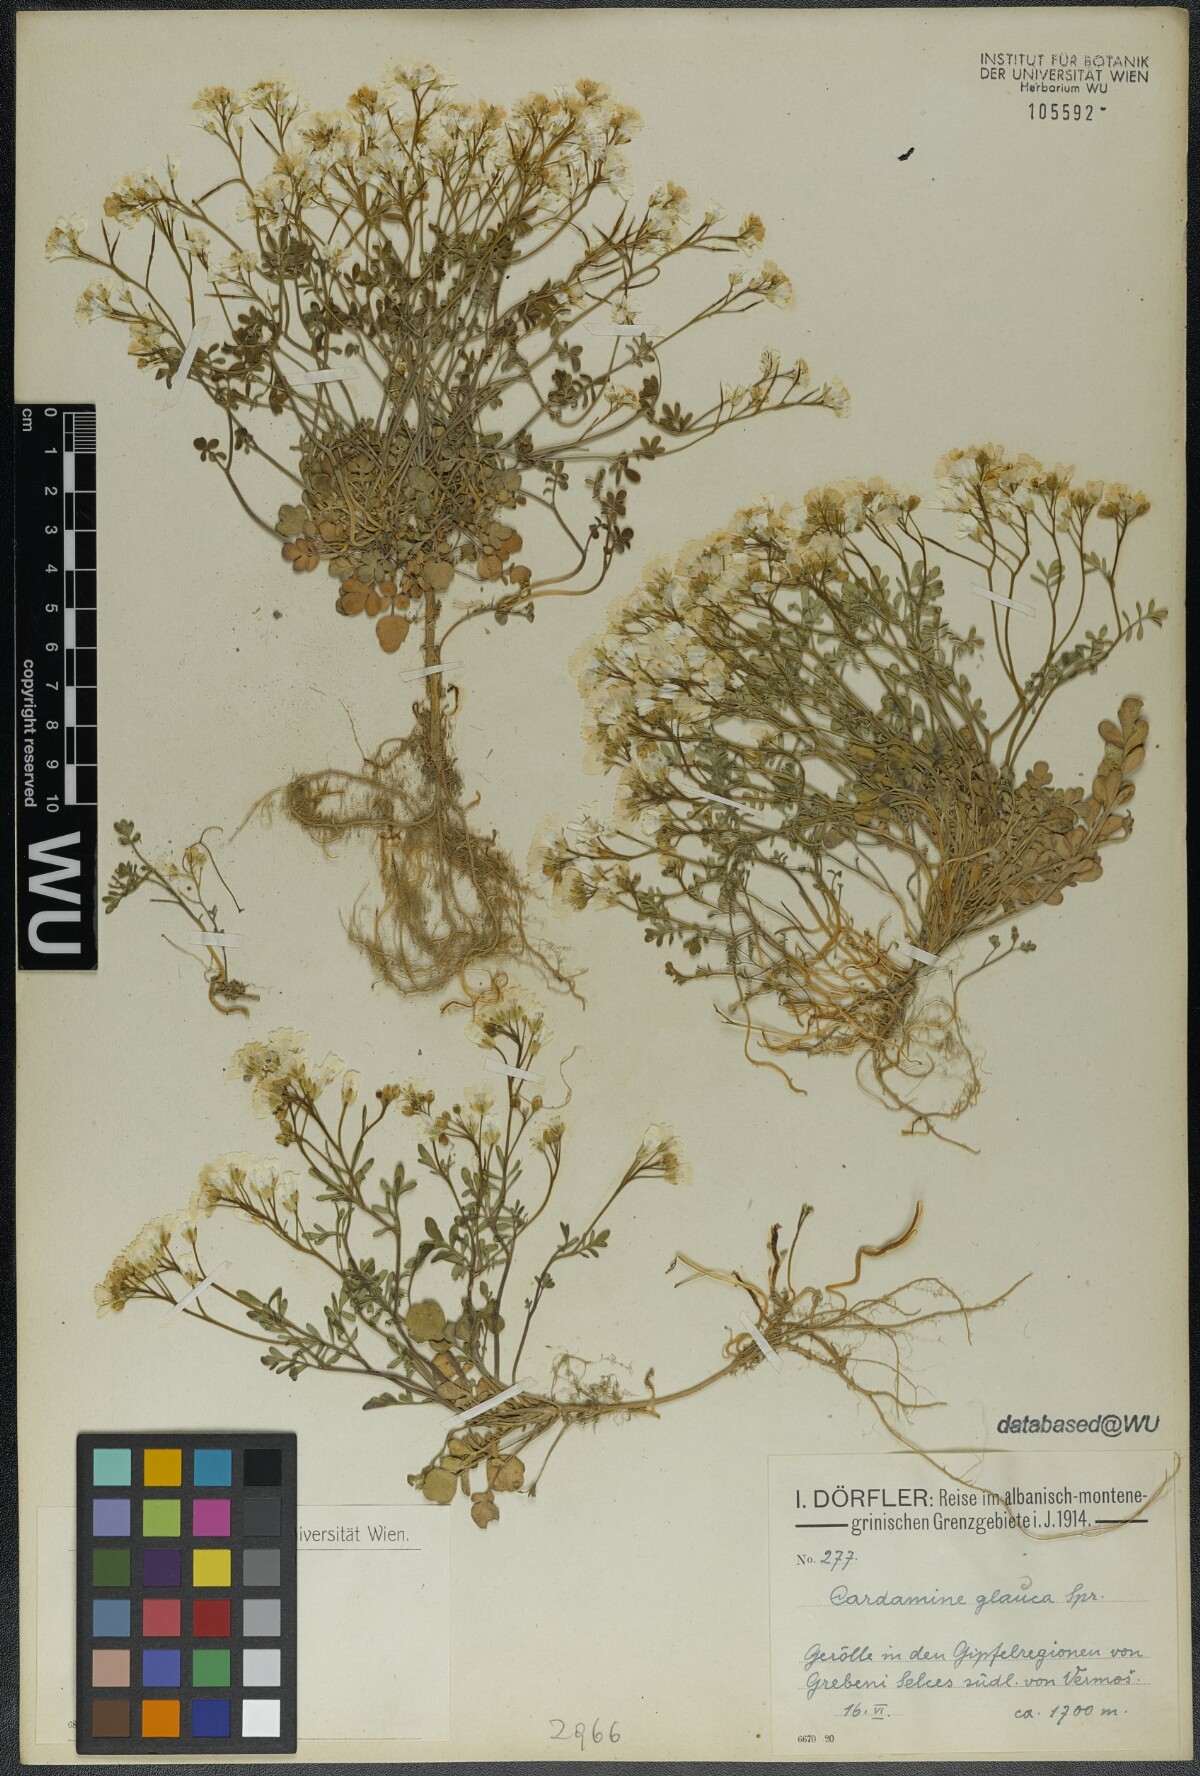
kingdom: Plantae
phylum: Tracheophyta
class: Magnoliopsida
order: Brassicales
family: Brassicaceae
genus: Cardamine
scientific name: Cardamine glauca
